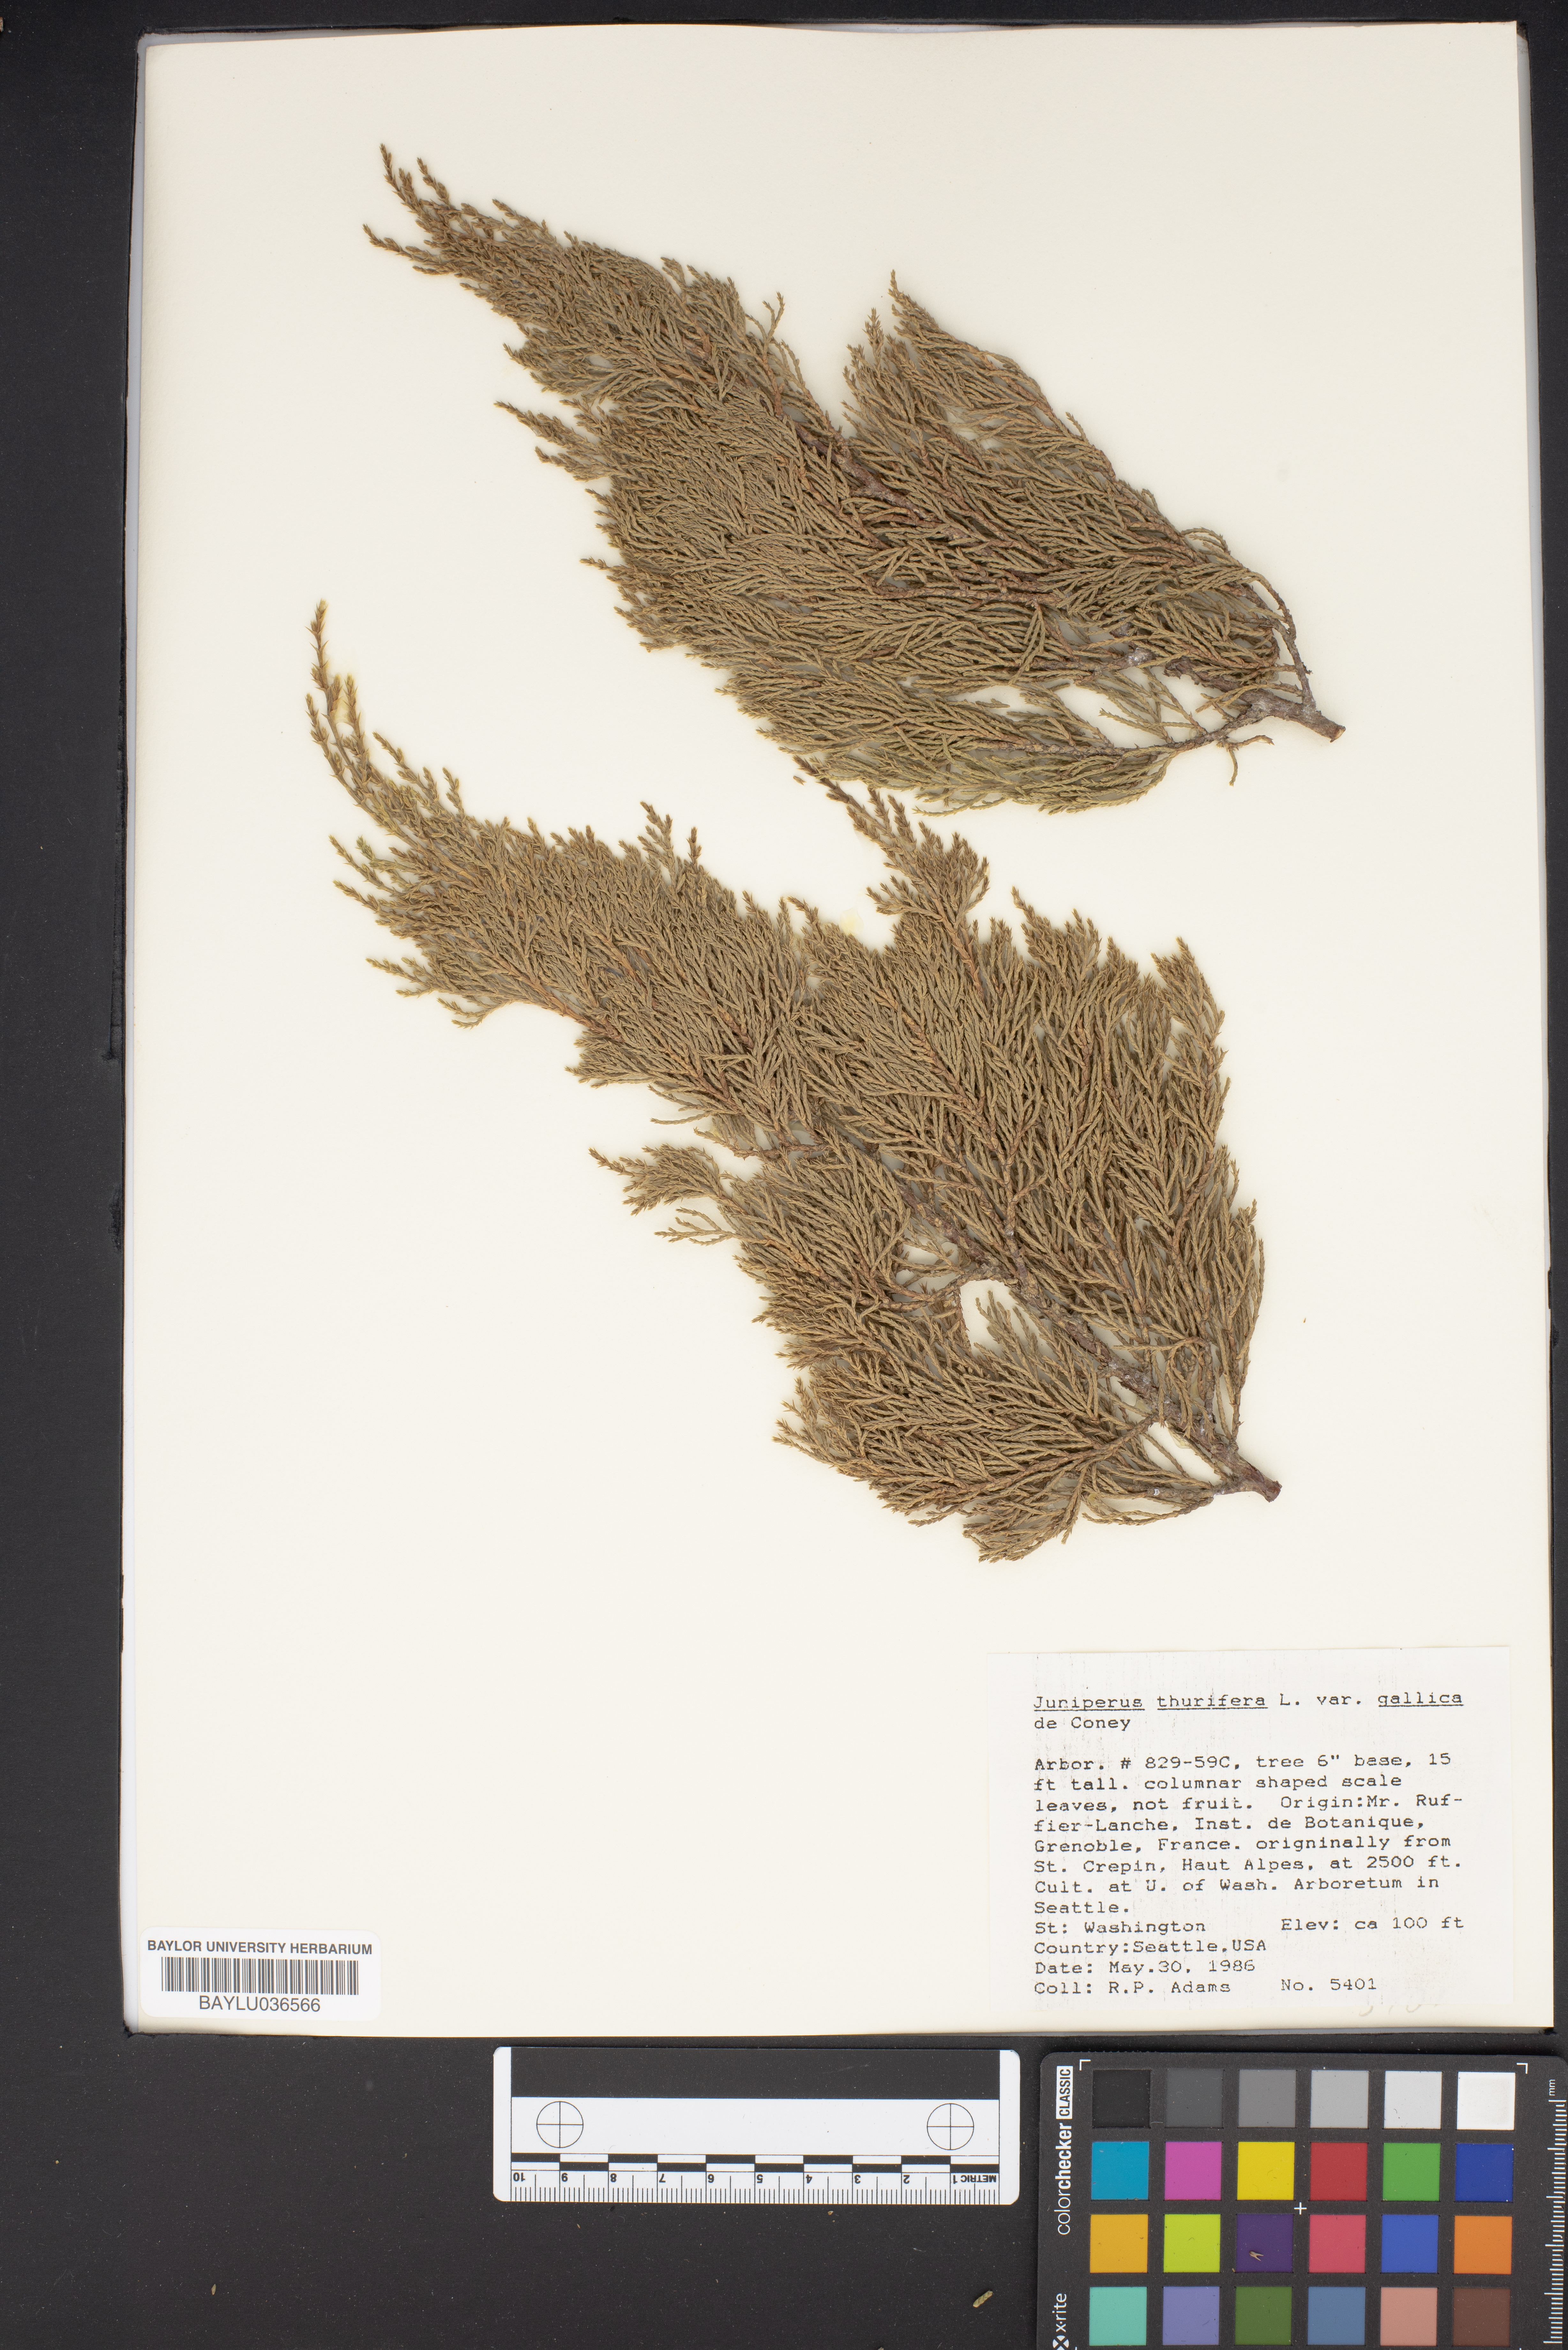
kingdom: Plantae
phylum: Tracheophyta
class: Pinopsida
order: Pinales
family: Cupressaceae
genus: Juniperus
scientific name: Juniperus thurifera
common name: Incense juniper
